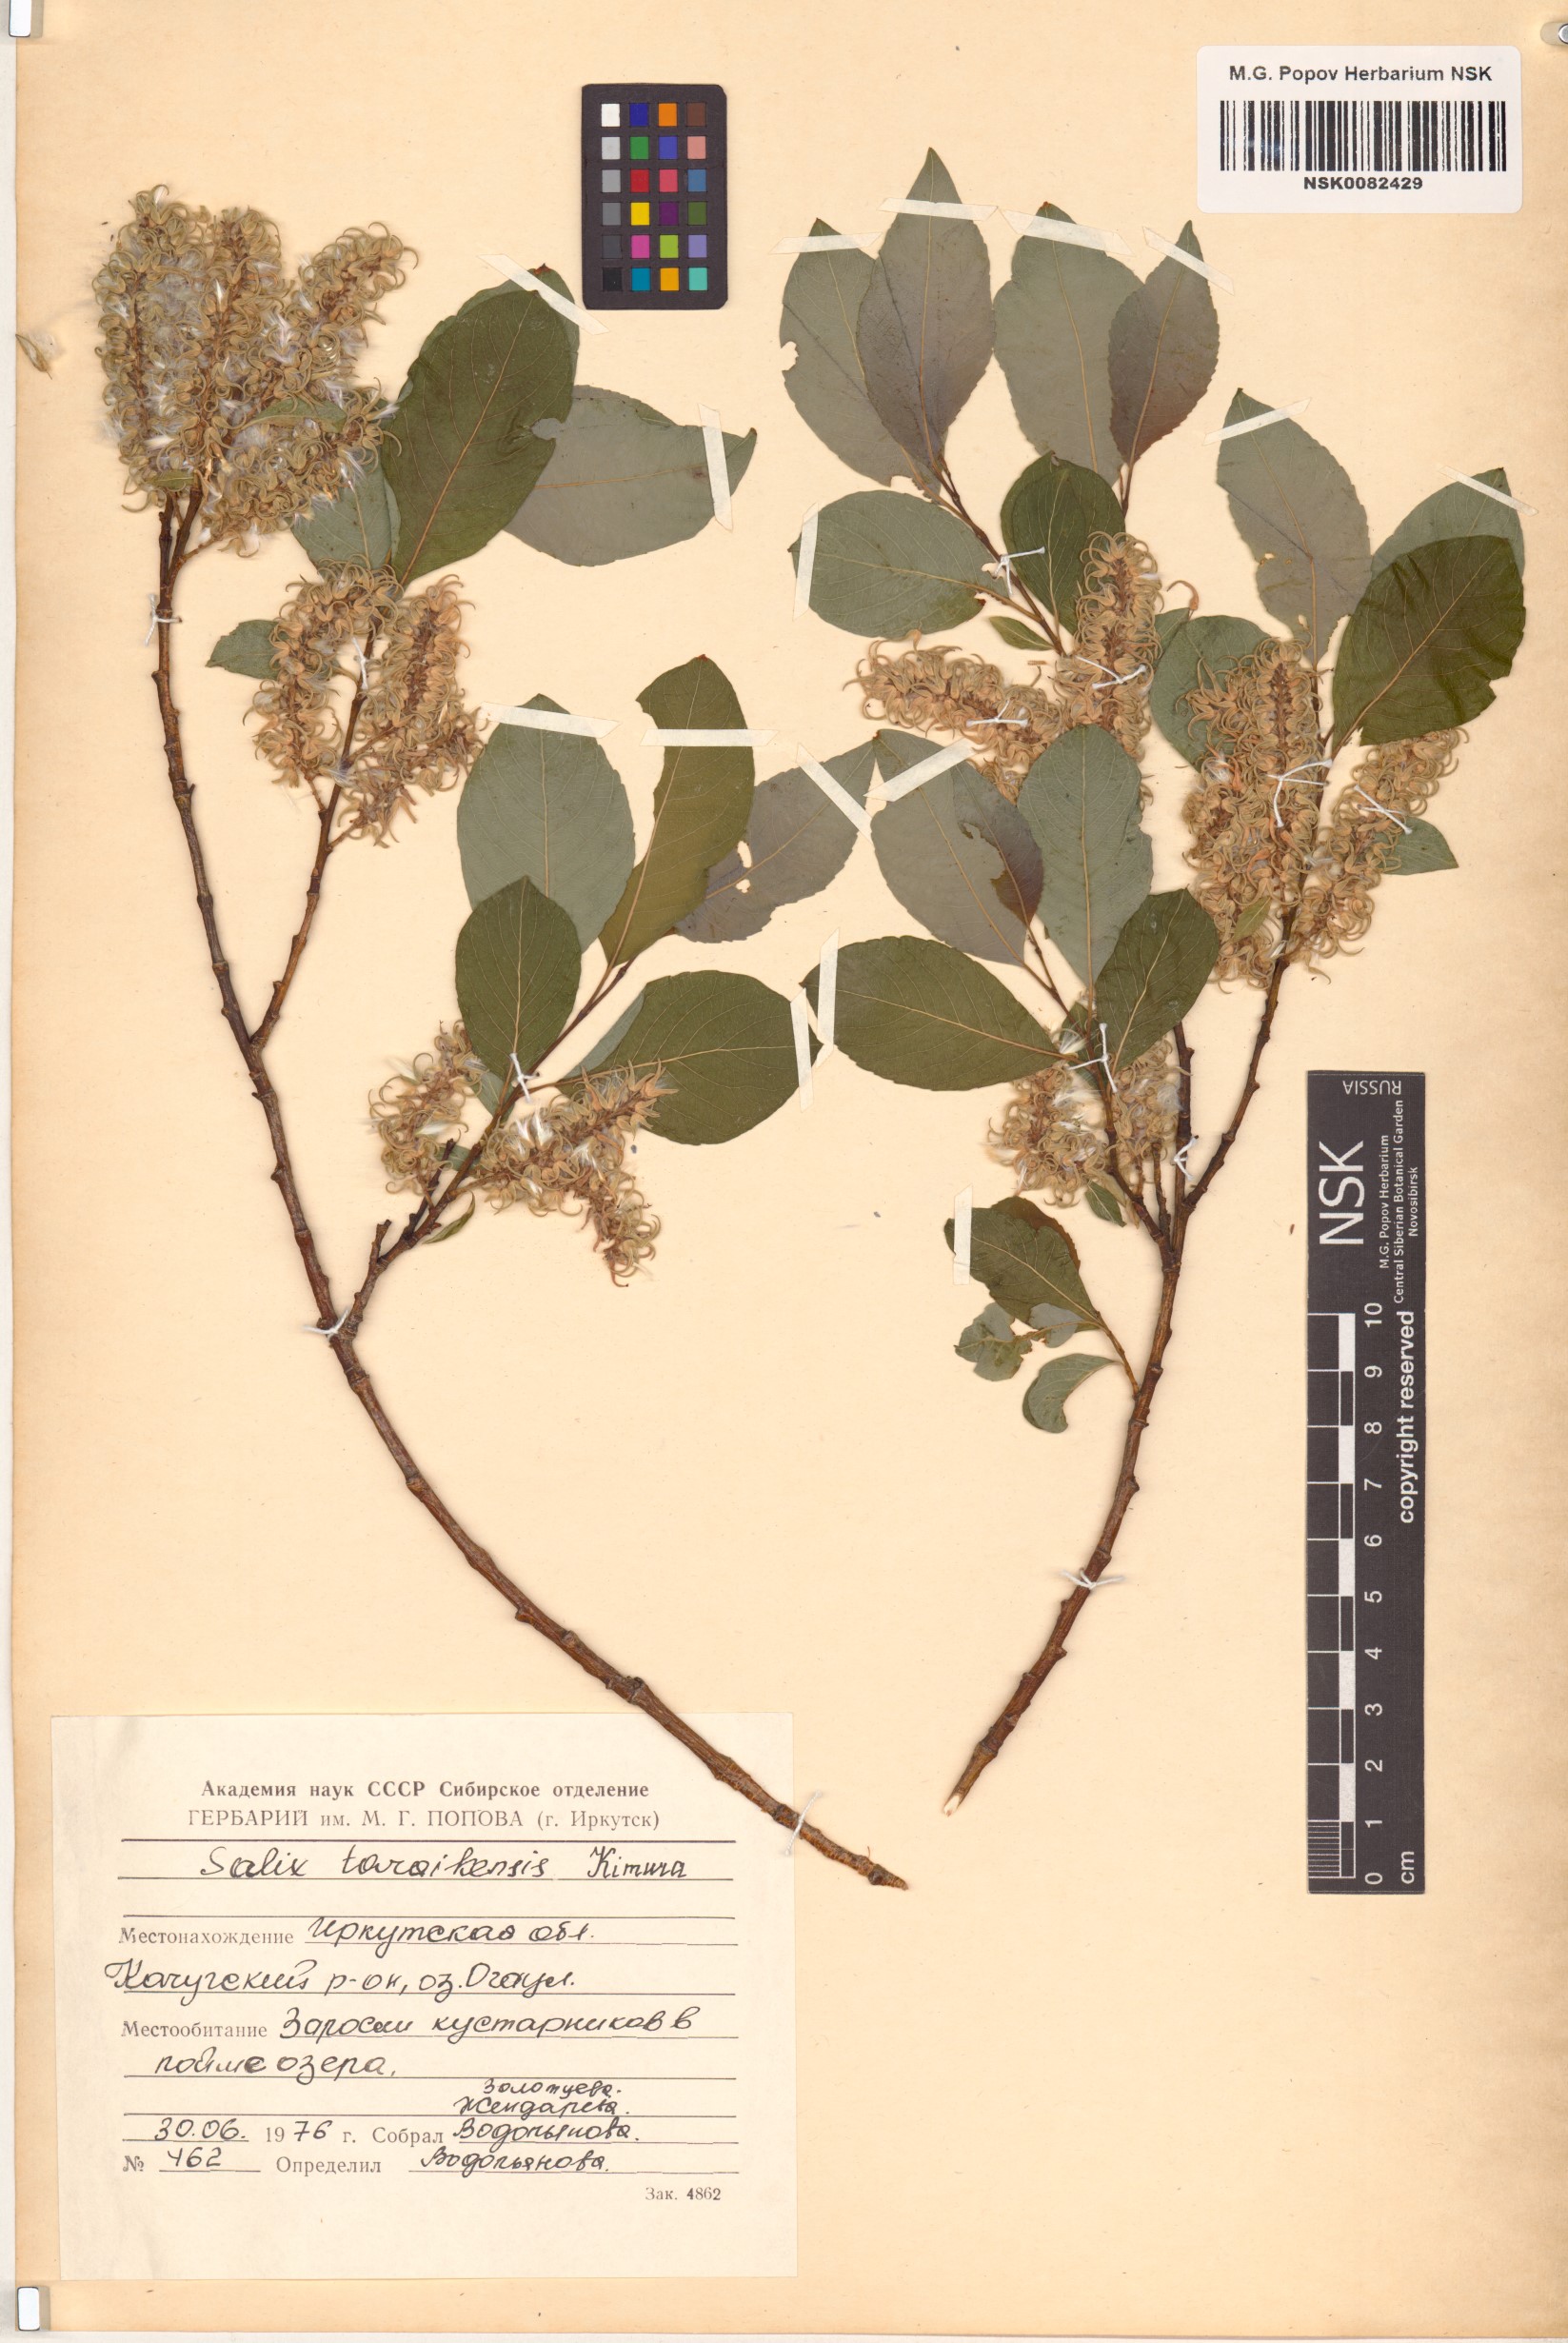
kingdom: Plantae
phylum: Tracheophyta
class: Magnoliopsida
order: Malpighiales
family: Salicaceae
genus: Salix
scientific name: Salix taraikensis
